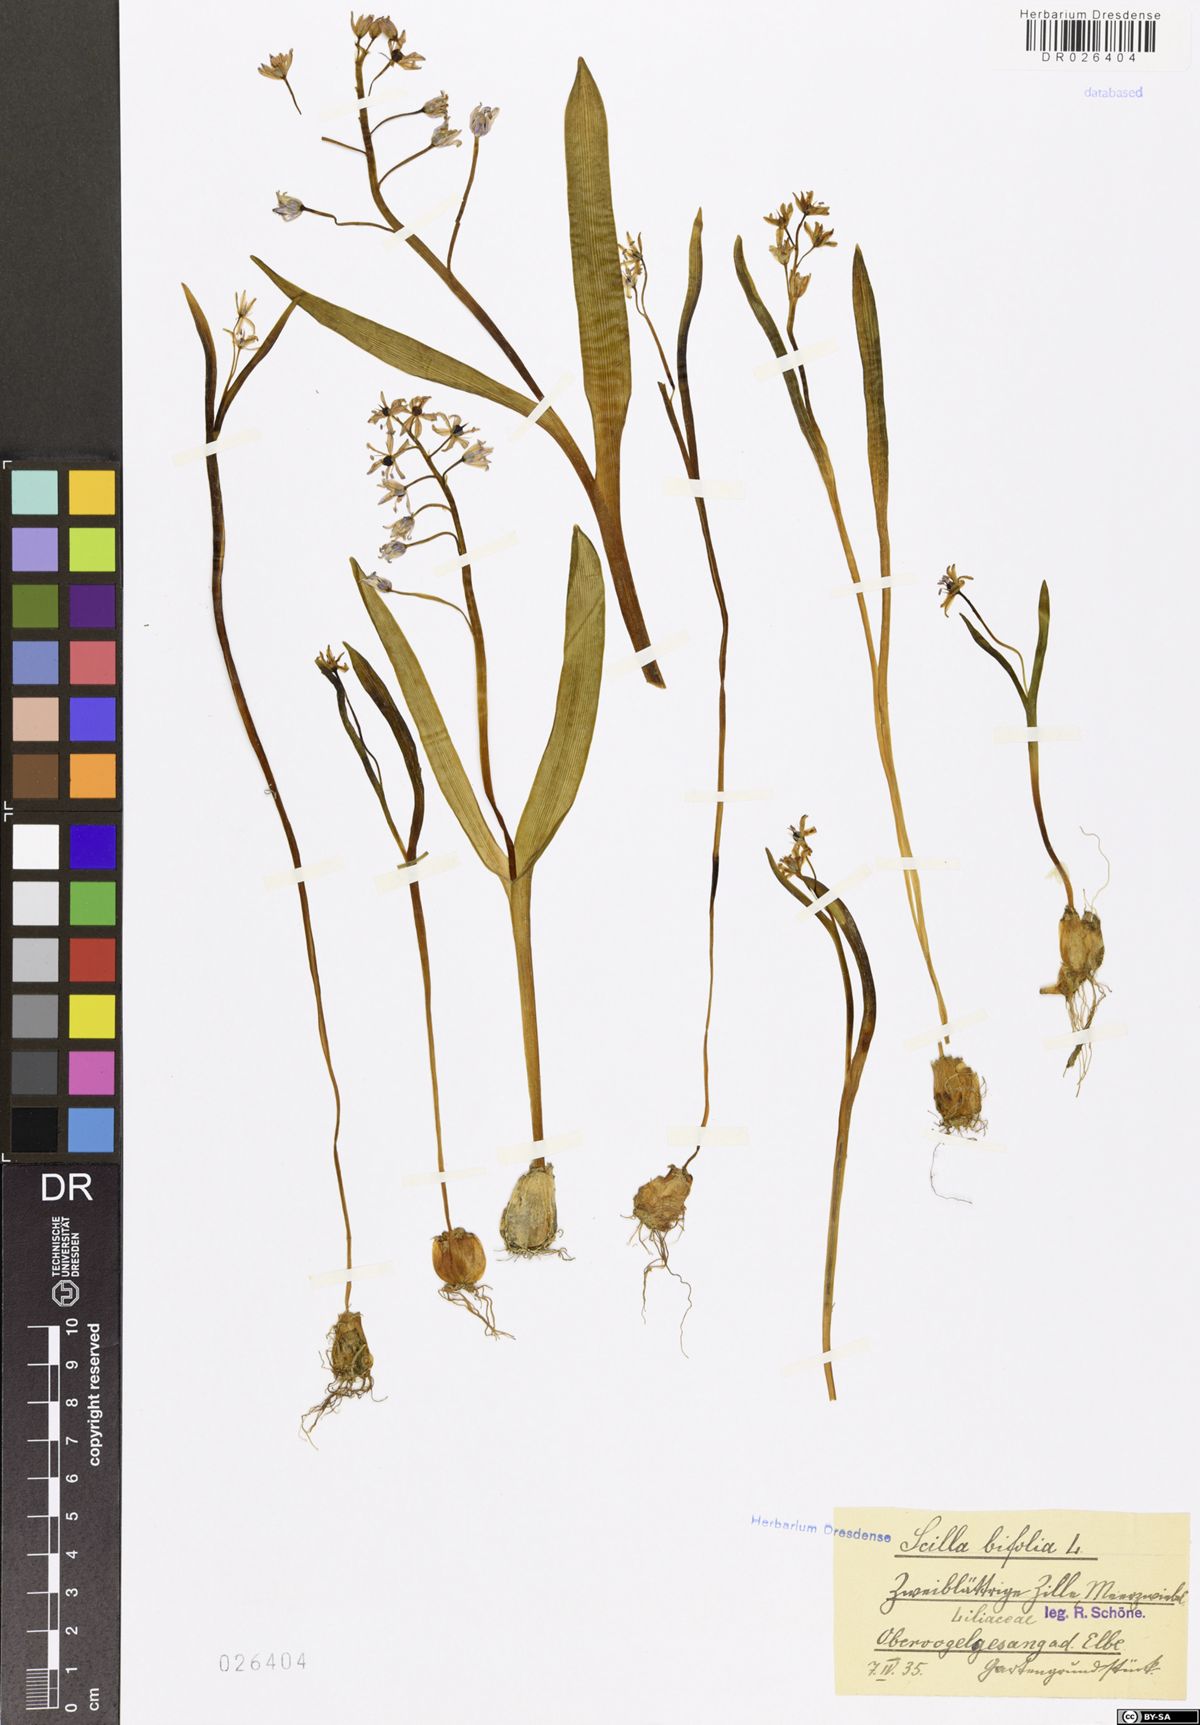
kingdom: Plantae
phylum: Tracheophyta
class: Liliopsida
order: Asparagales
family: Asparagaceae
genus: Scilla
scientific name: Scilla vindobonensis
